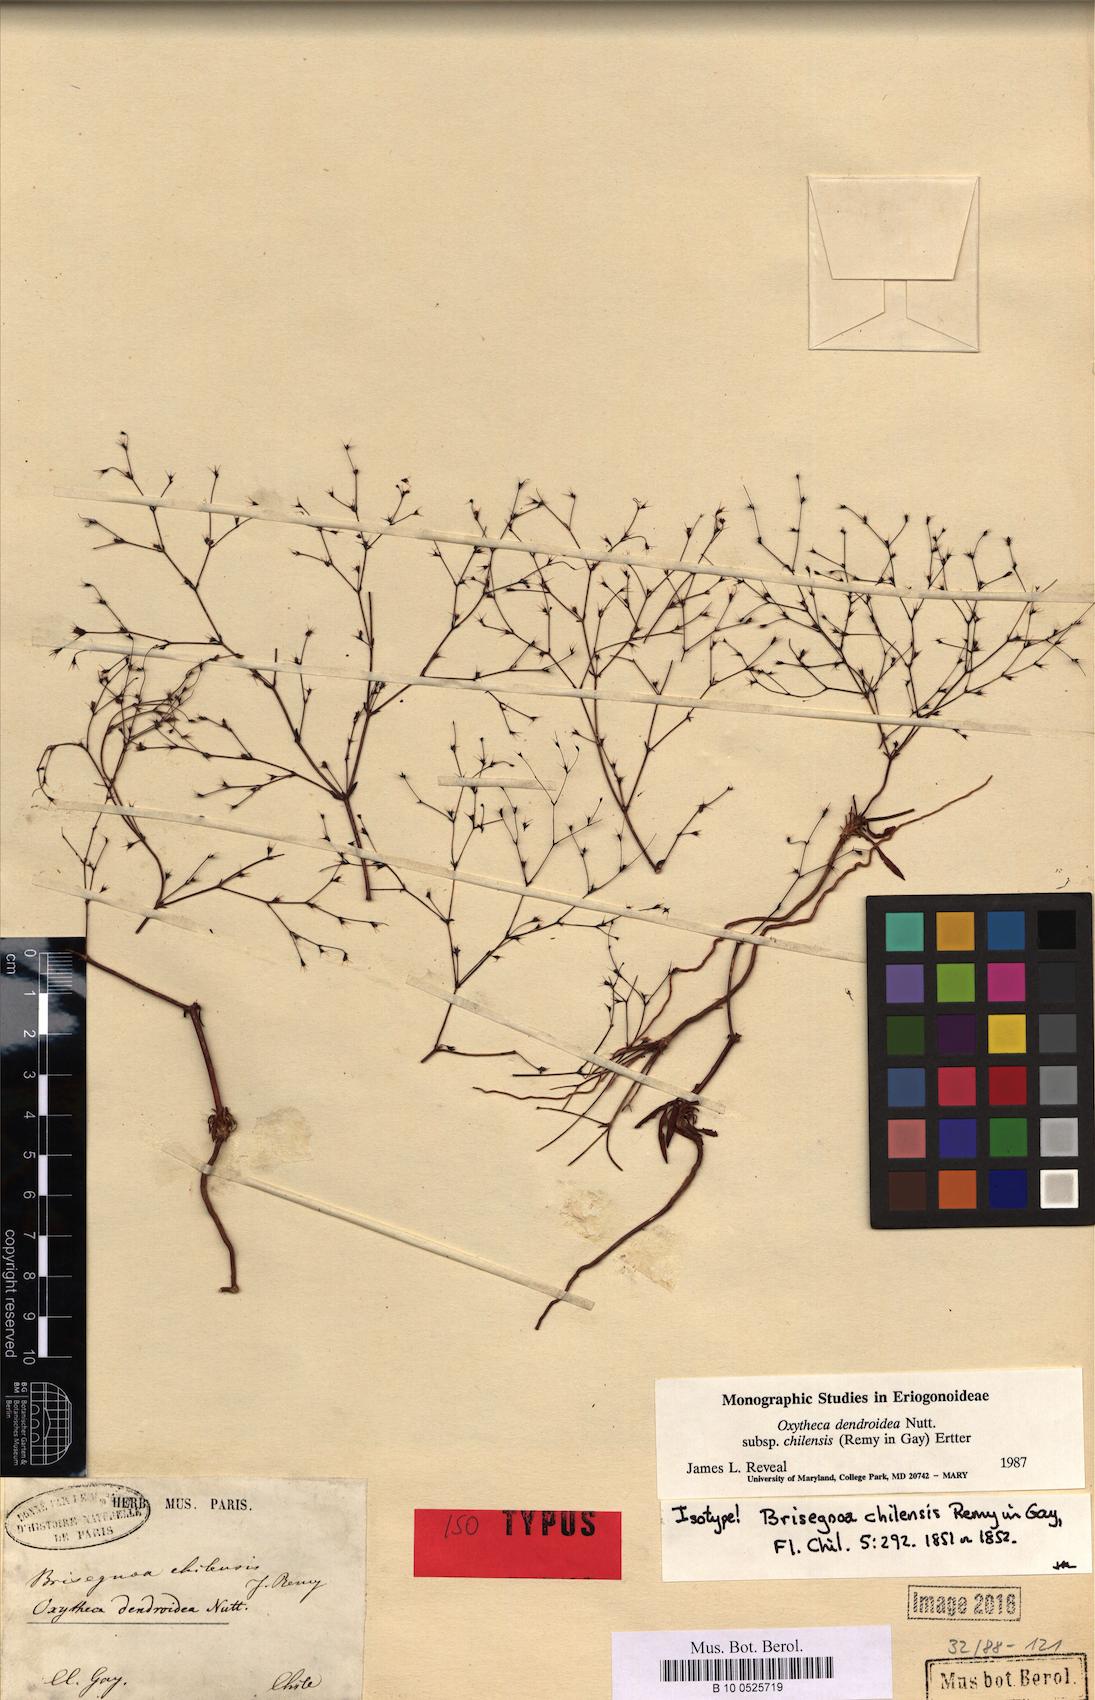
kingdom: Plantae
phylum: Tracheophyta
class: Magnoliopsida
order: Caryophyllales
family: Polygonaceae
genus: Oxytheca
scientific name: Oxytheca dendroidea
